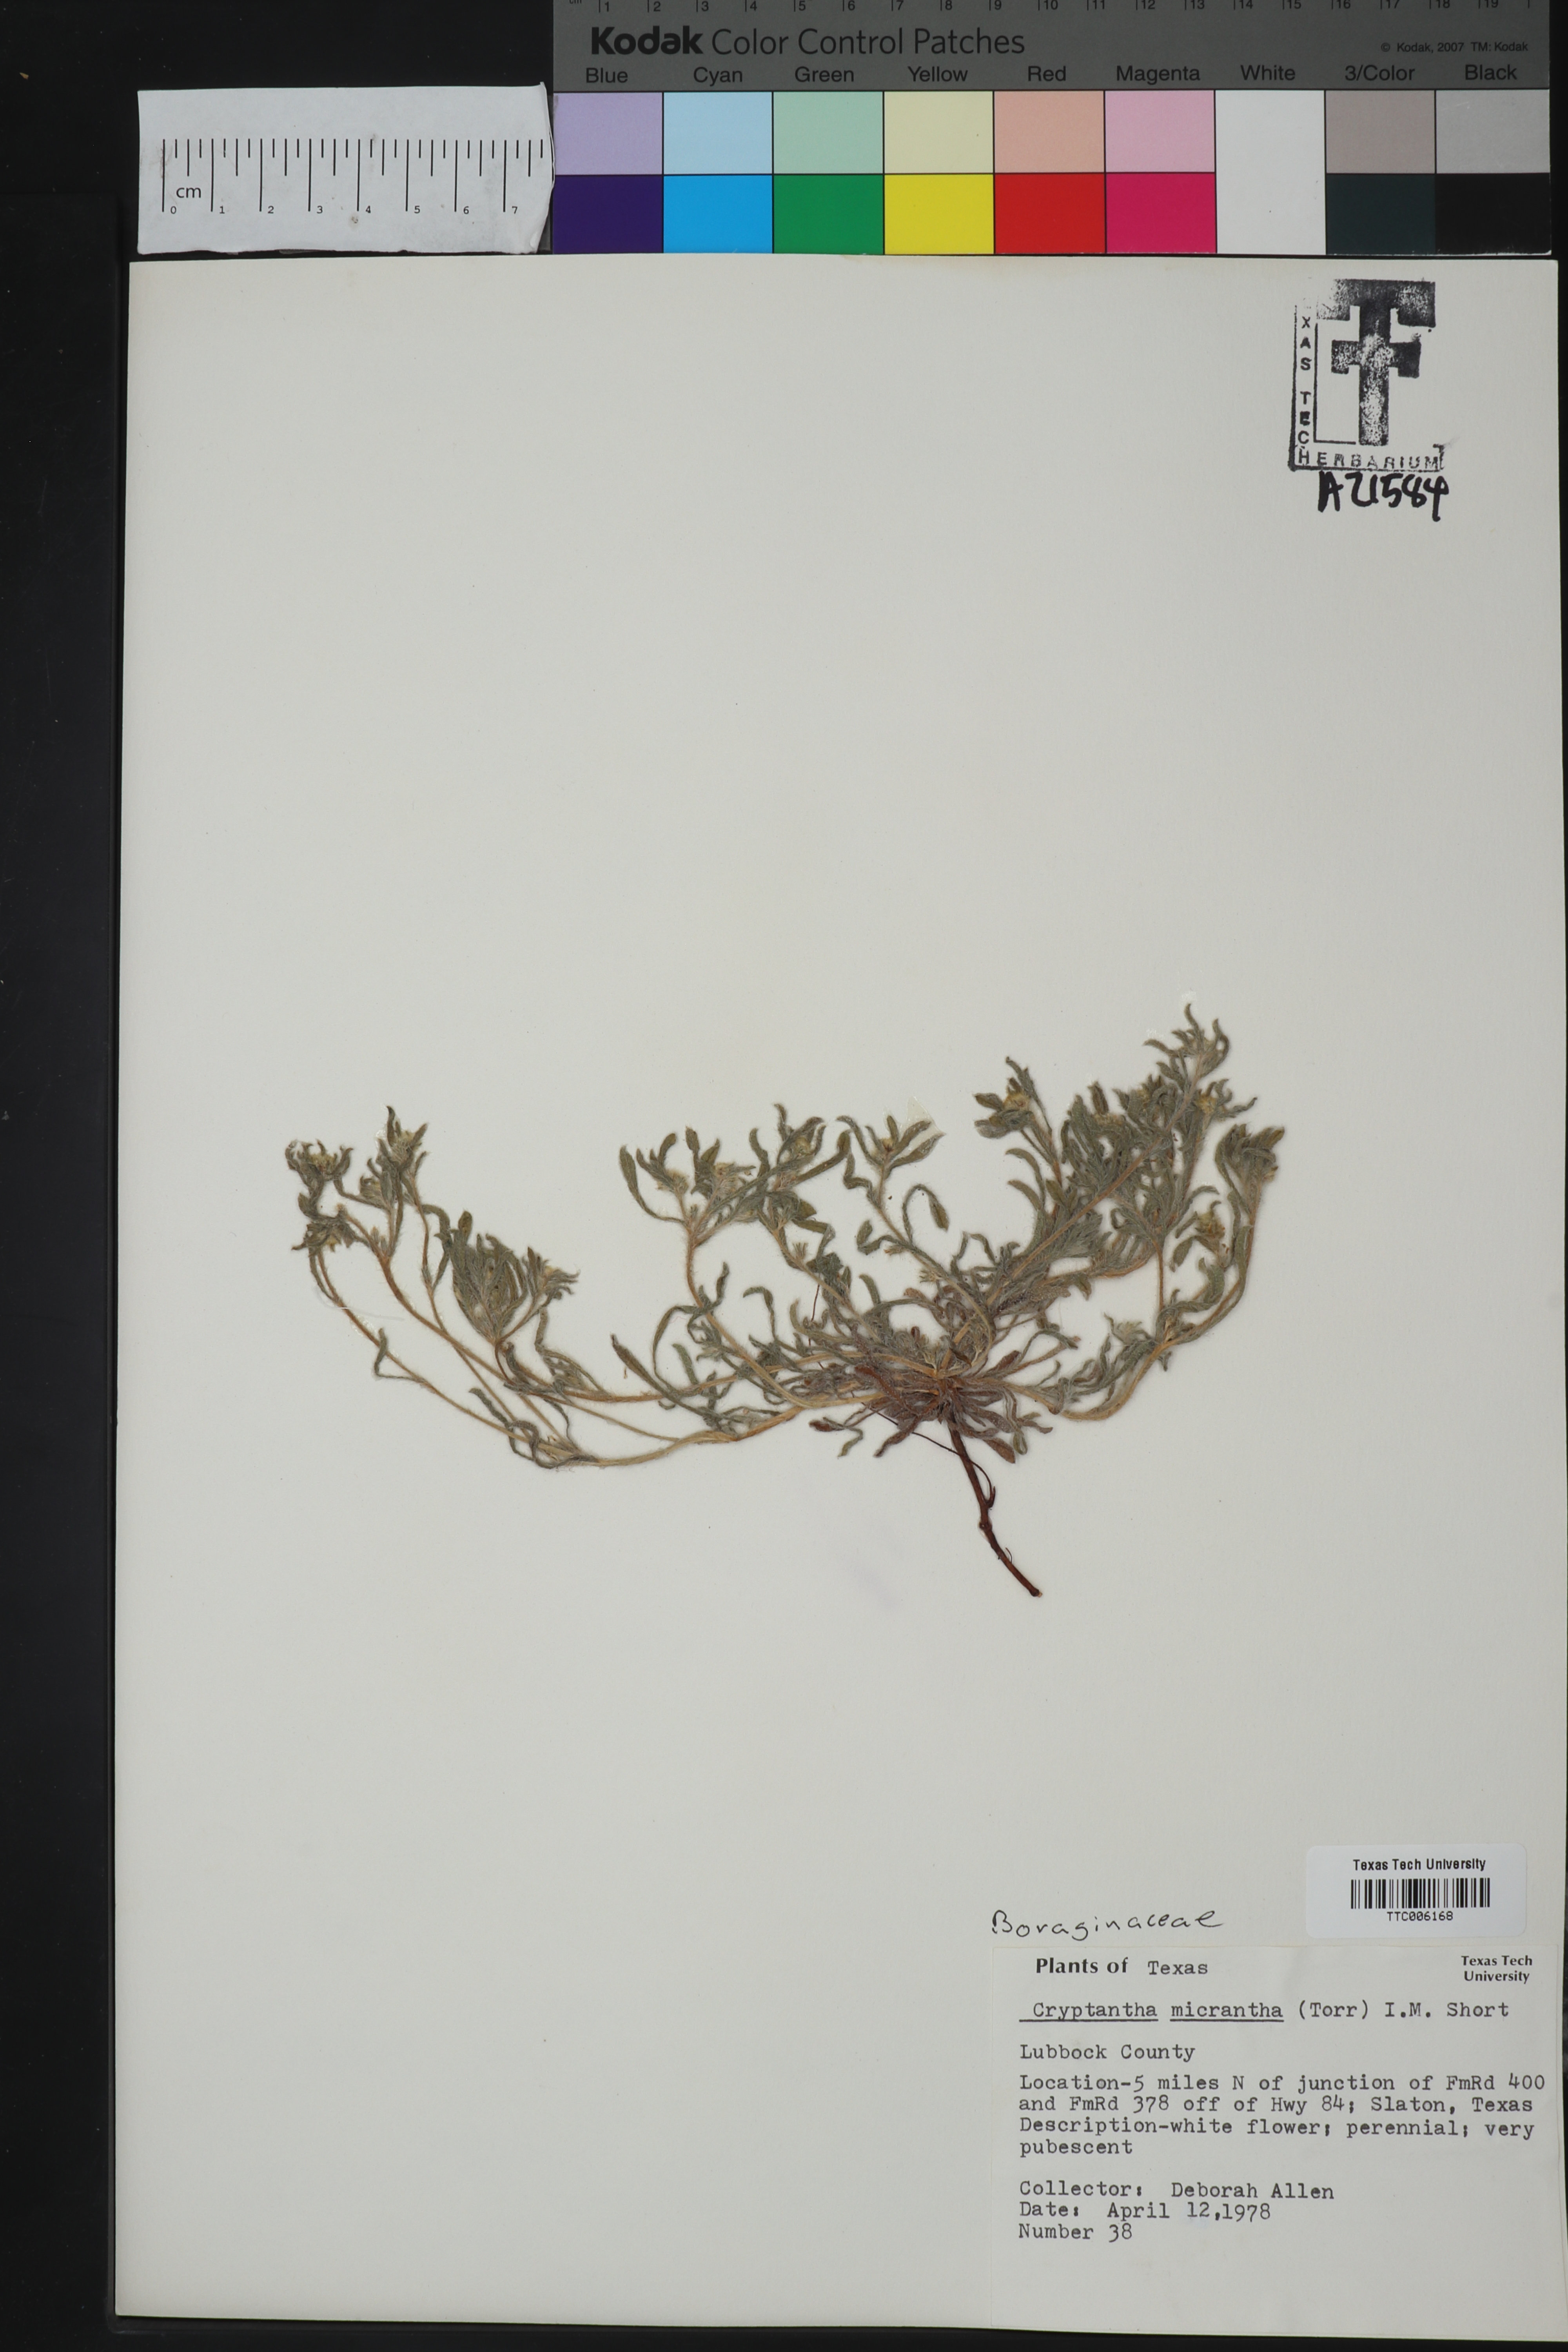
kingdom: Plantae
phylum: Tracheophyta
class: Magnoliopsida
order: Boraginales
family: Boraginaceae
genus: Eremocarya
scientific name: Eremocarya micrantha
